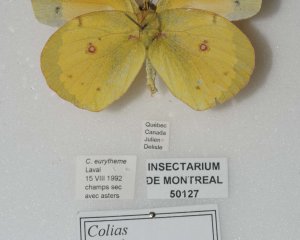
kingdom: Animalia
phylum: Arthropoda
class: Insecta
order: Lepidoptera
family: Pieridae
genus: Colias
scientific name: Colias eurytheme
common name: Orange Sulphur
